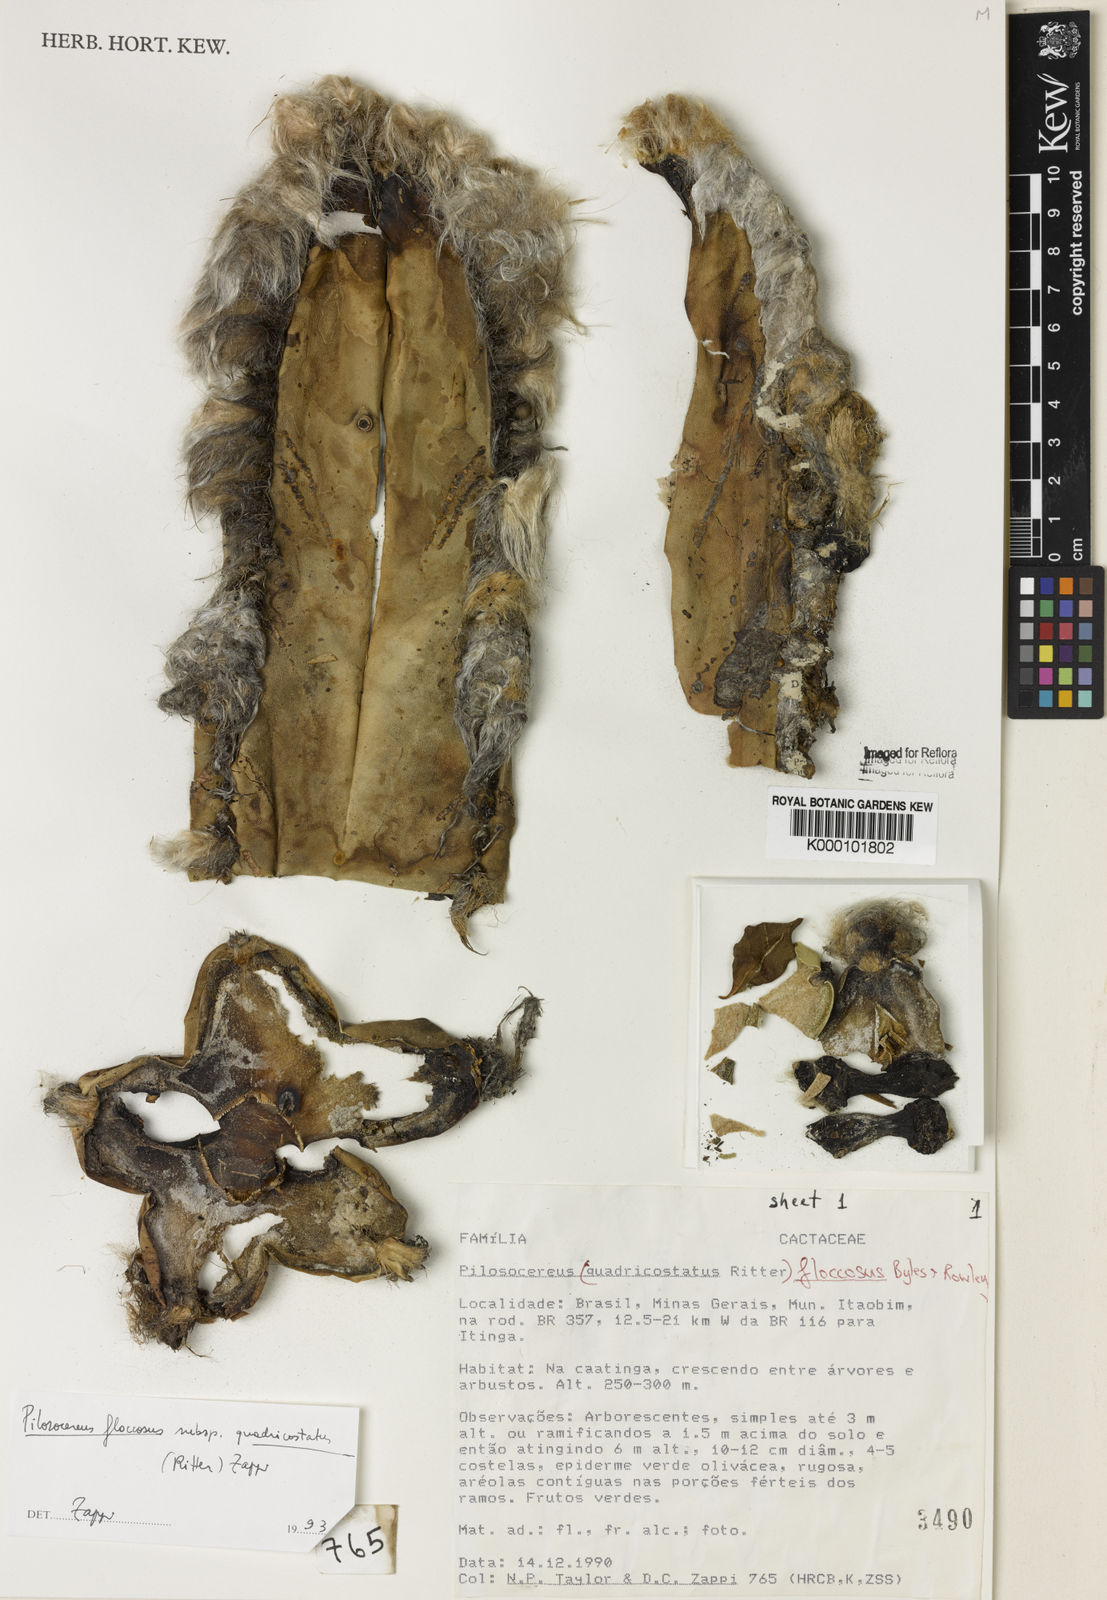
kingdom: Plantae
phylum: Tracheophyta
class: Magnoliopsida
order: Caryophyllales
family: Cactaceae
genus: Pilosocereus
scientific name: Pilosocereus floccosus
